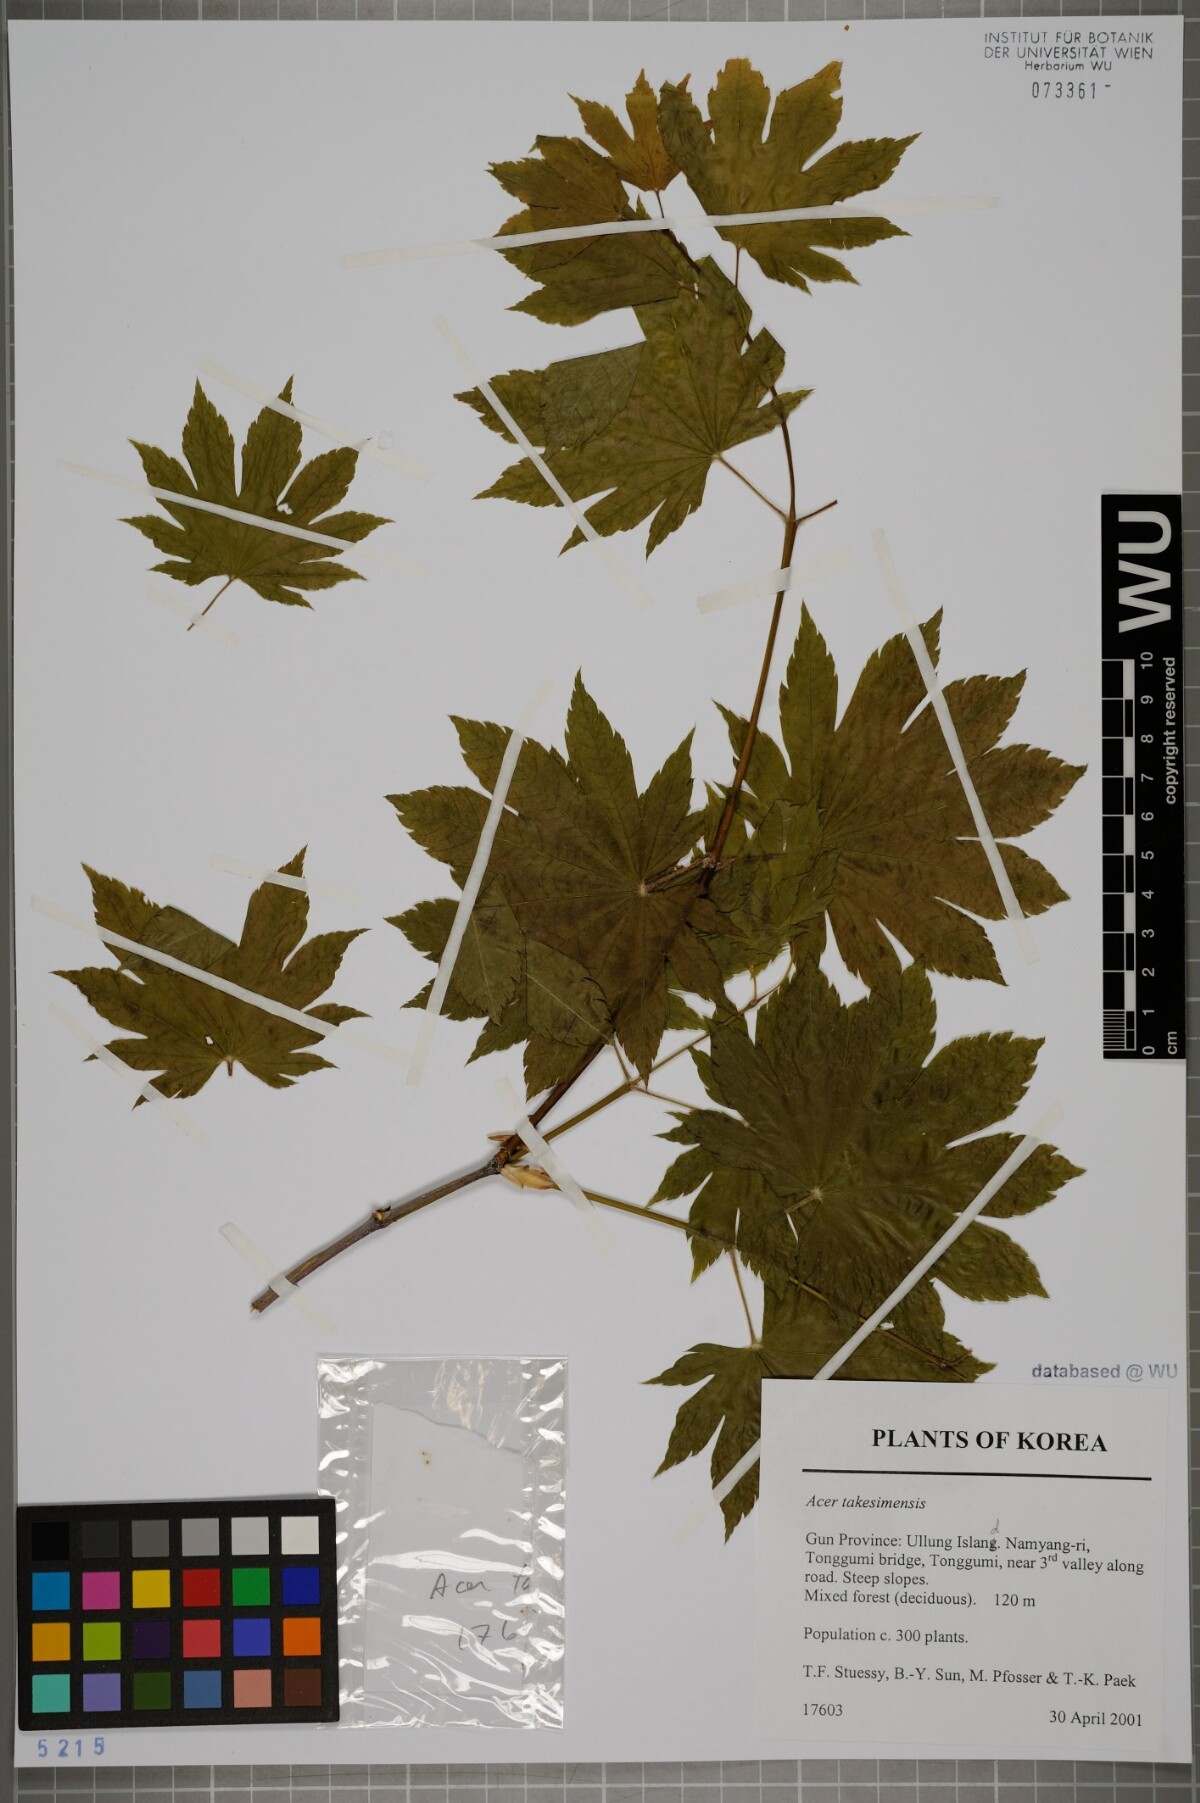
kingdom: Plantae
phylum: Tracheophyta
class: Magnoliopsida
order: Sapindales
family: Sapindaceae
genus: Acer
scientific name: Acer pseudosieboldianum
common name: Korean maple
